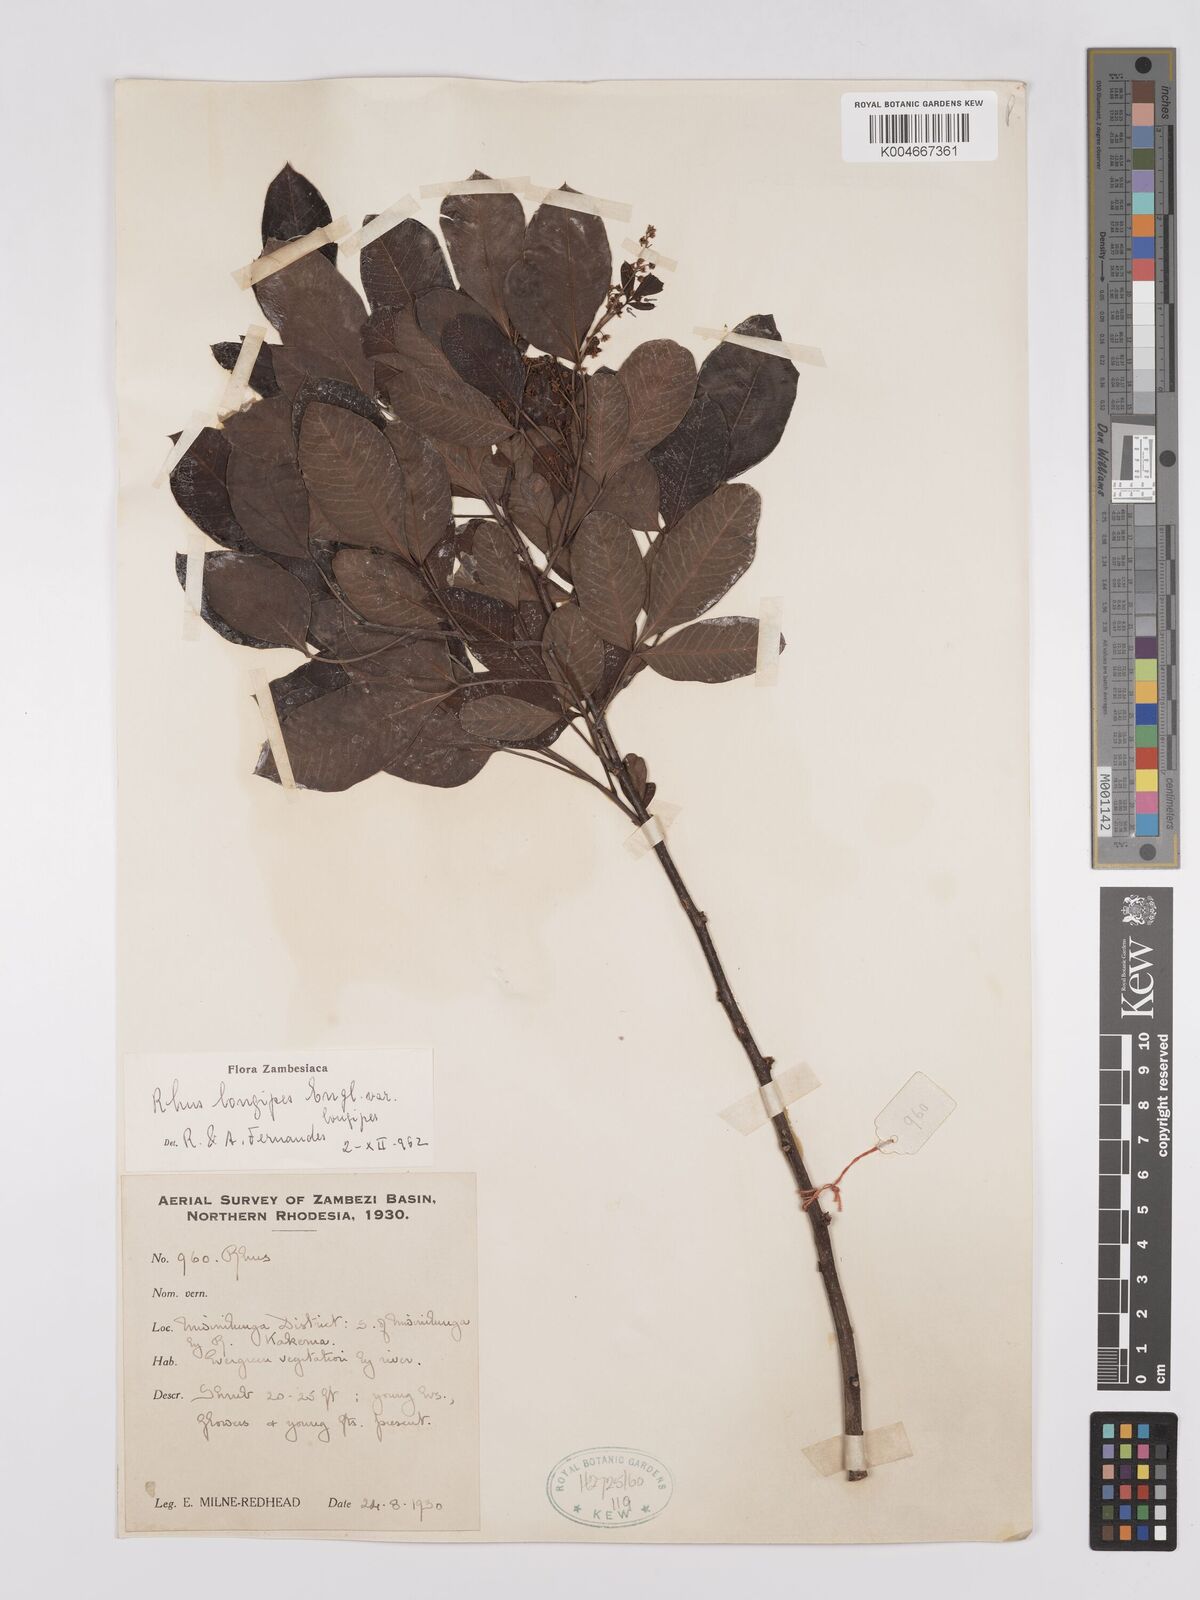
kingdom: Plantae
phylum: Tracheophyta
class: Magnoliopsida
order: Sapindales
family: Anacardiaceae
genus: Searsia
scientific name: Searsia longipes
